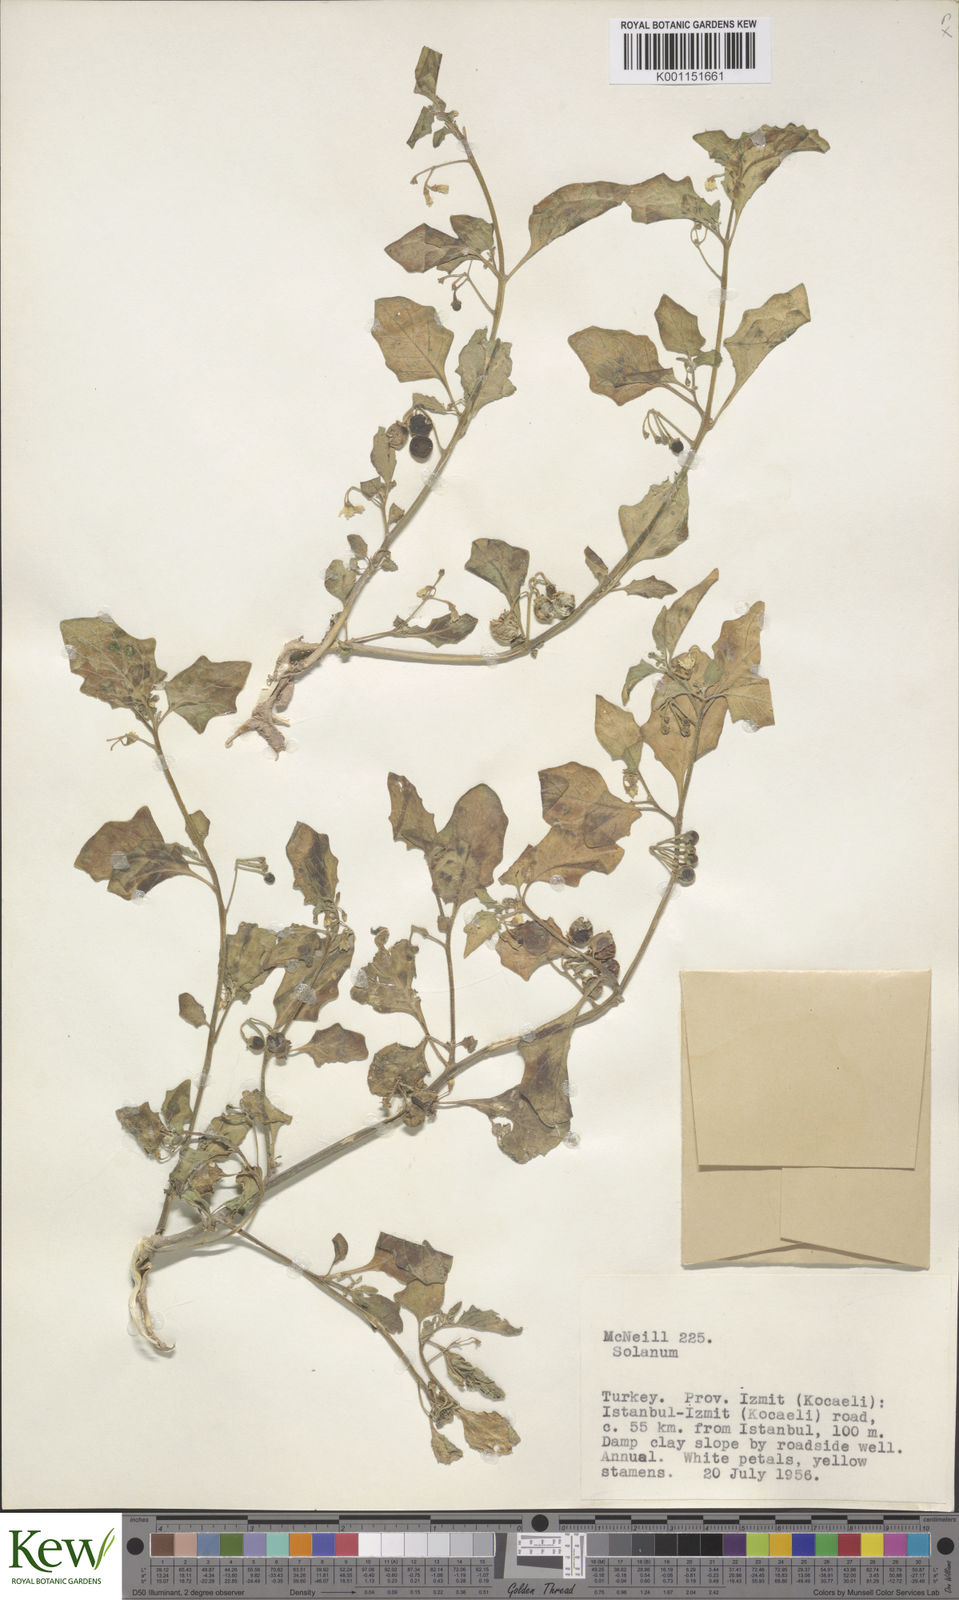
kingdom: Plantae
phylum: Tracheophyta
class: Magnoliopsida
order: Solanales
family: Solanaceae
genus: Solanum
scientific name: Solanum nigrum
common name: Black nightshade
